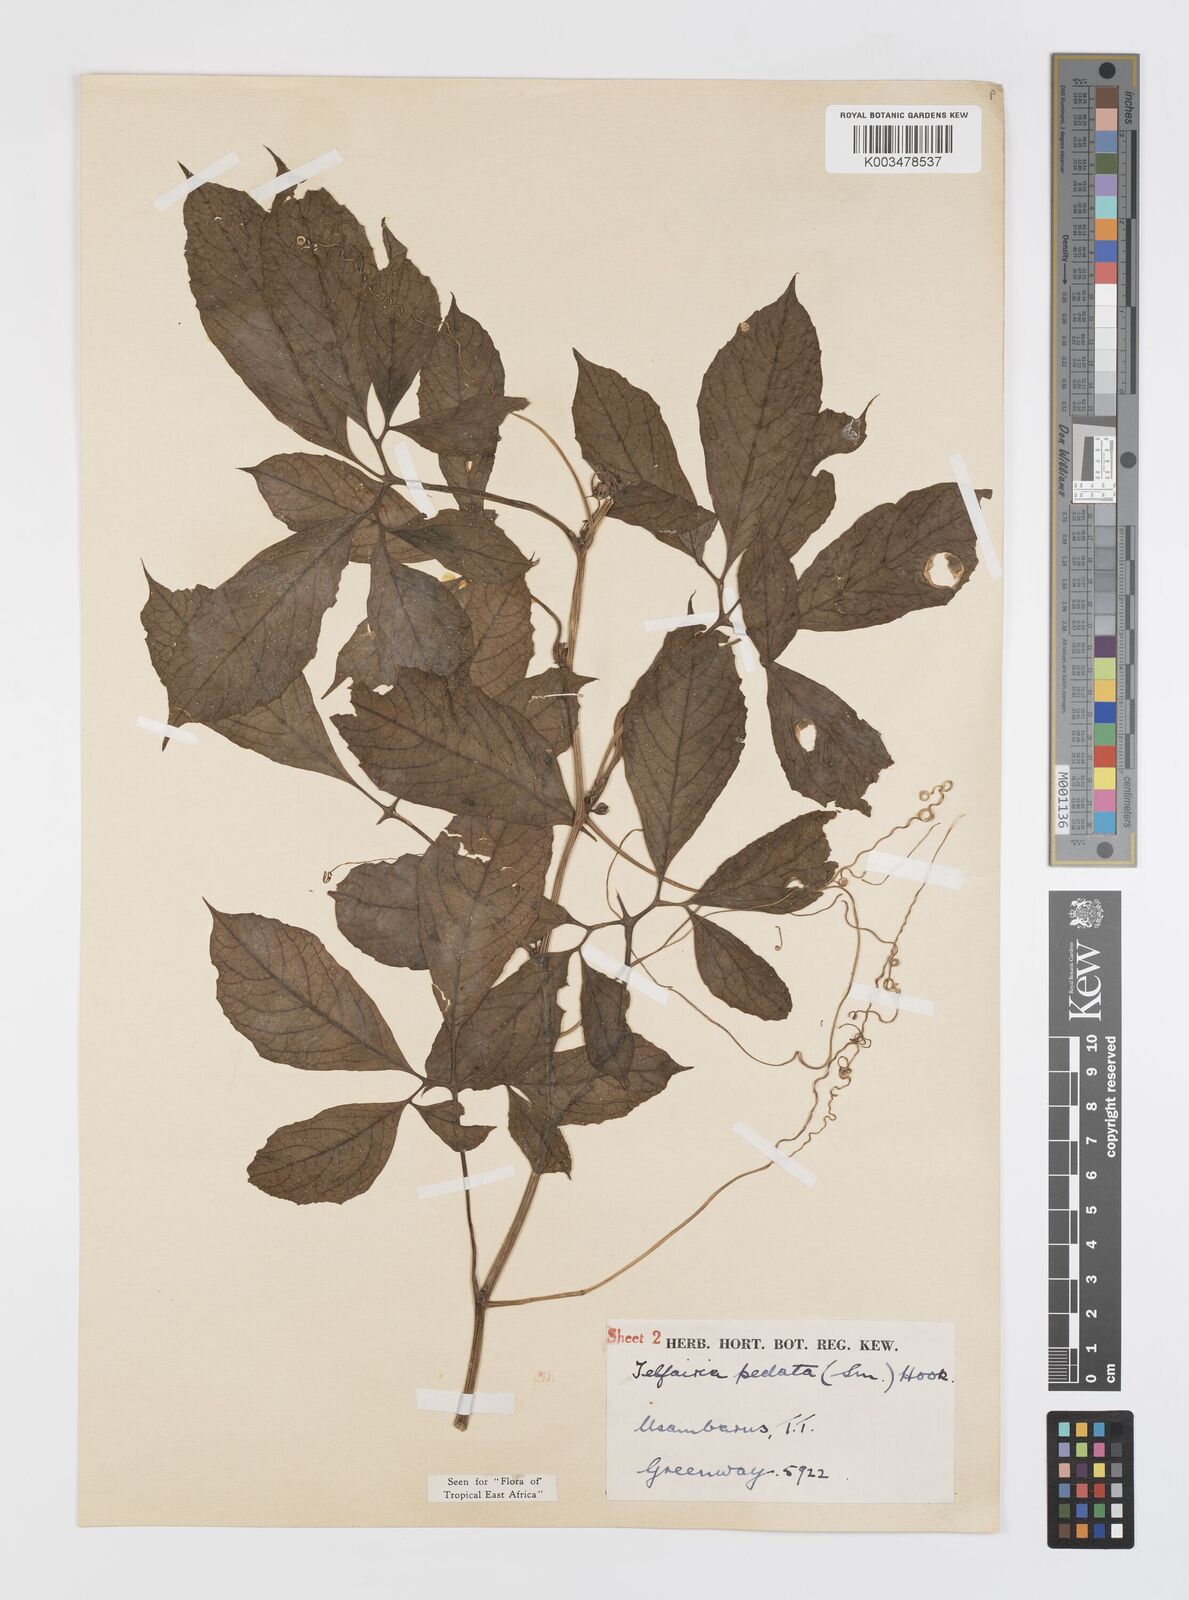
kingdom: Plantae
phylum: Tracheophyta
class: Magnoliopsida
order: Cucurbitales
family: Cucurbitaceae
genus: Telfairia
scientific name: Telfairia pedata
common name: Zanzibar oilvine
